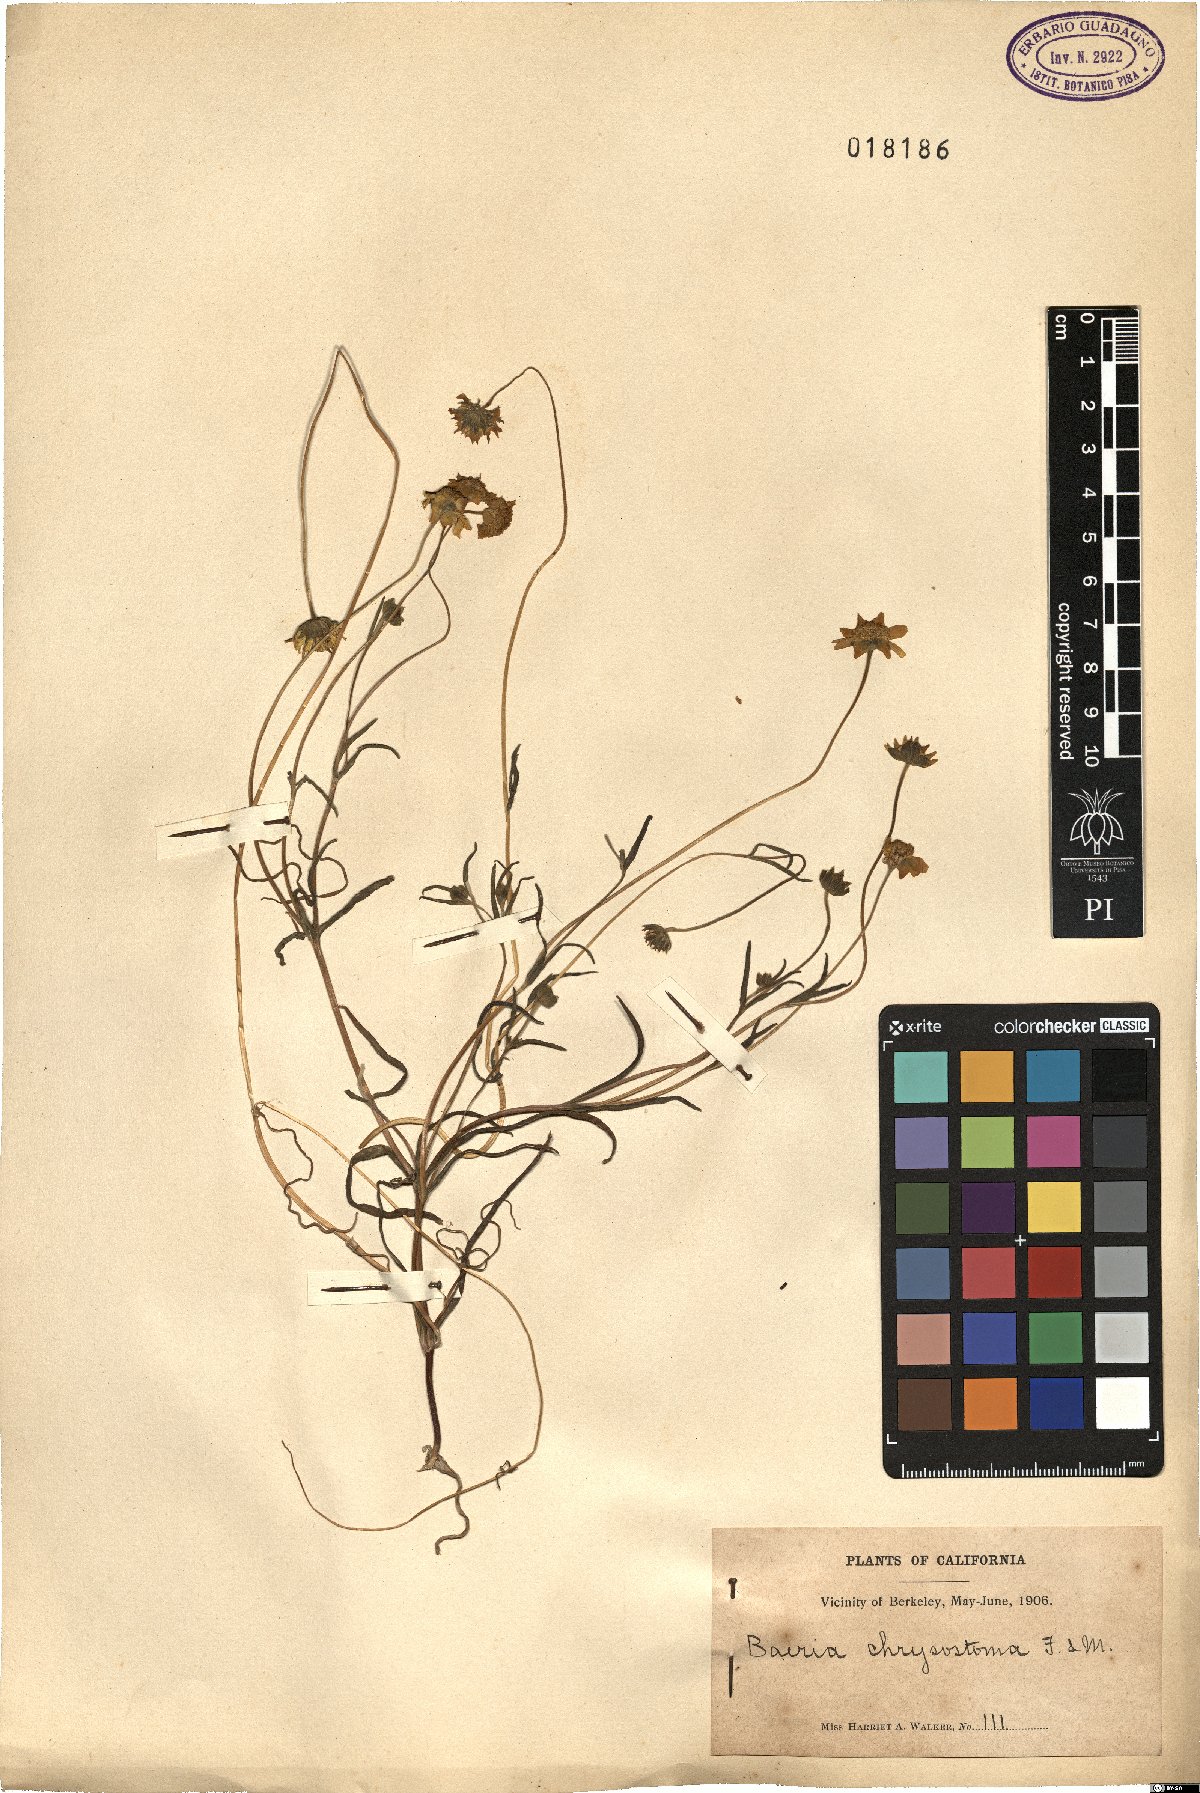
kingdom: Plantae
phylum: Tracheophyta
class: Magnoliopsida
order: Asterales
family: Asteraceae
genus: Lasthenia
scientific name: Lasthenia californica
